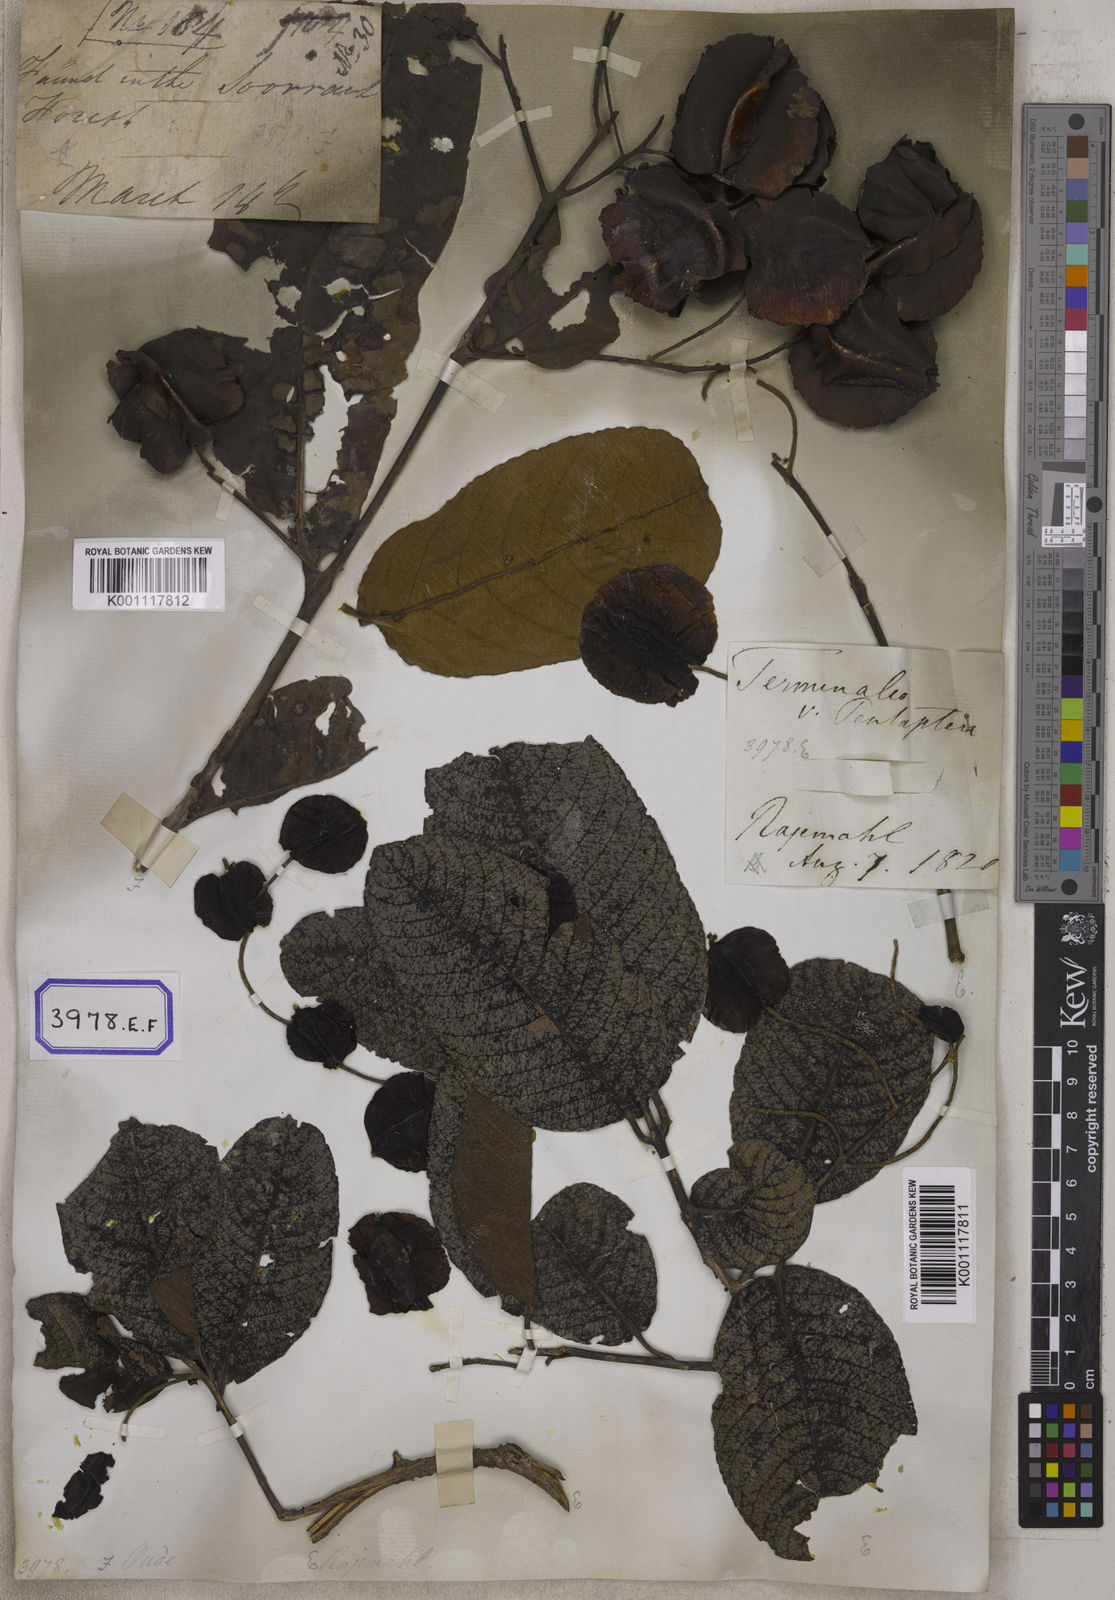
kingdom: Plantae
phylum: Tracheophyta
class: Magnoliopsida
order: Myrtales
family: Combretaceae
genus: Terminalia
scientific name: Terminalia
